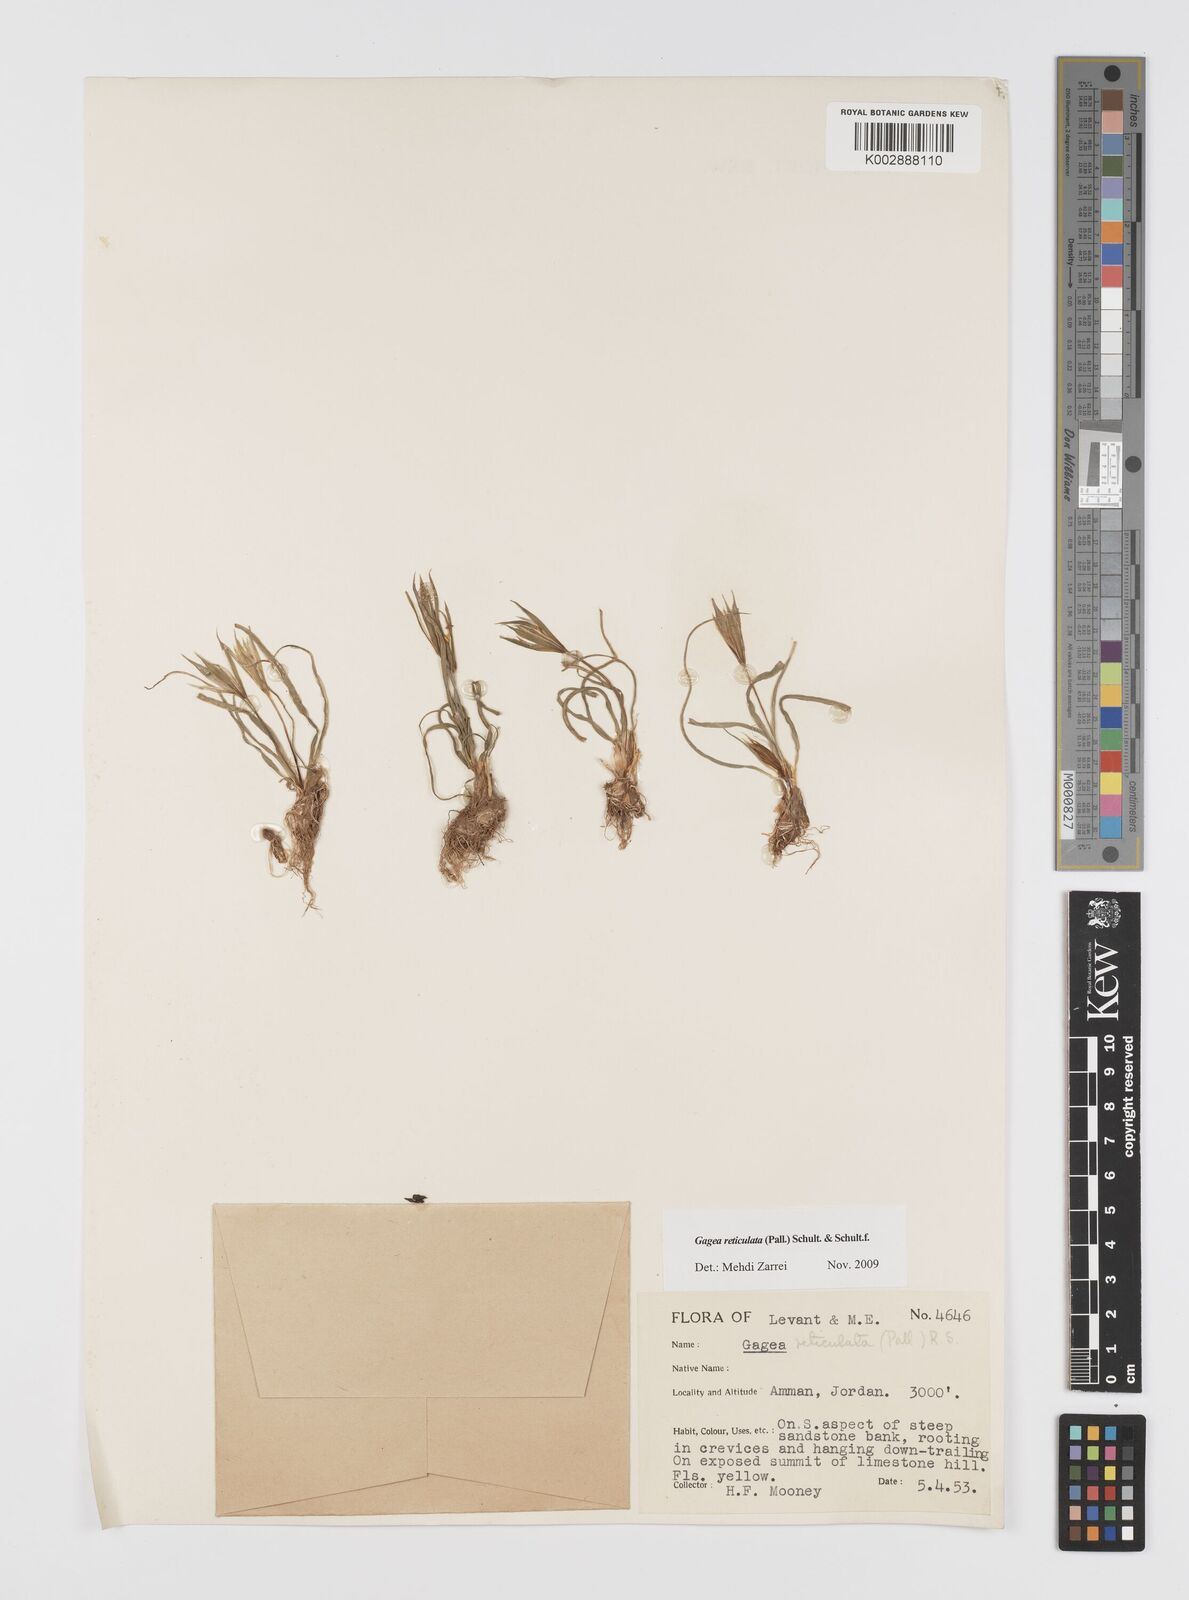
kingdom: Plantae
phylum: Tracheophyta
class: Liliopsida
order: Liliales
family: Liliaceae
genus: Gagea
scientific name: Gagea reticulata
